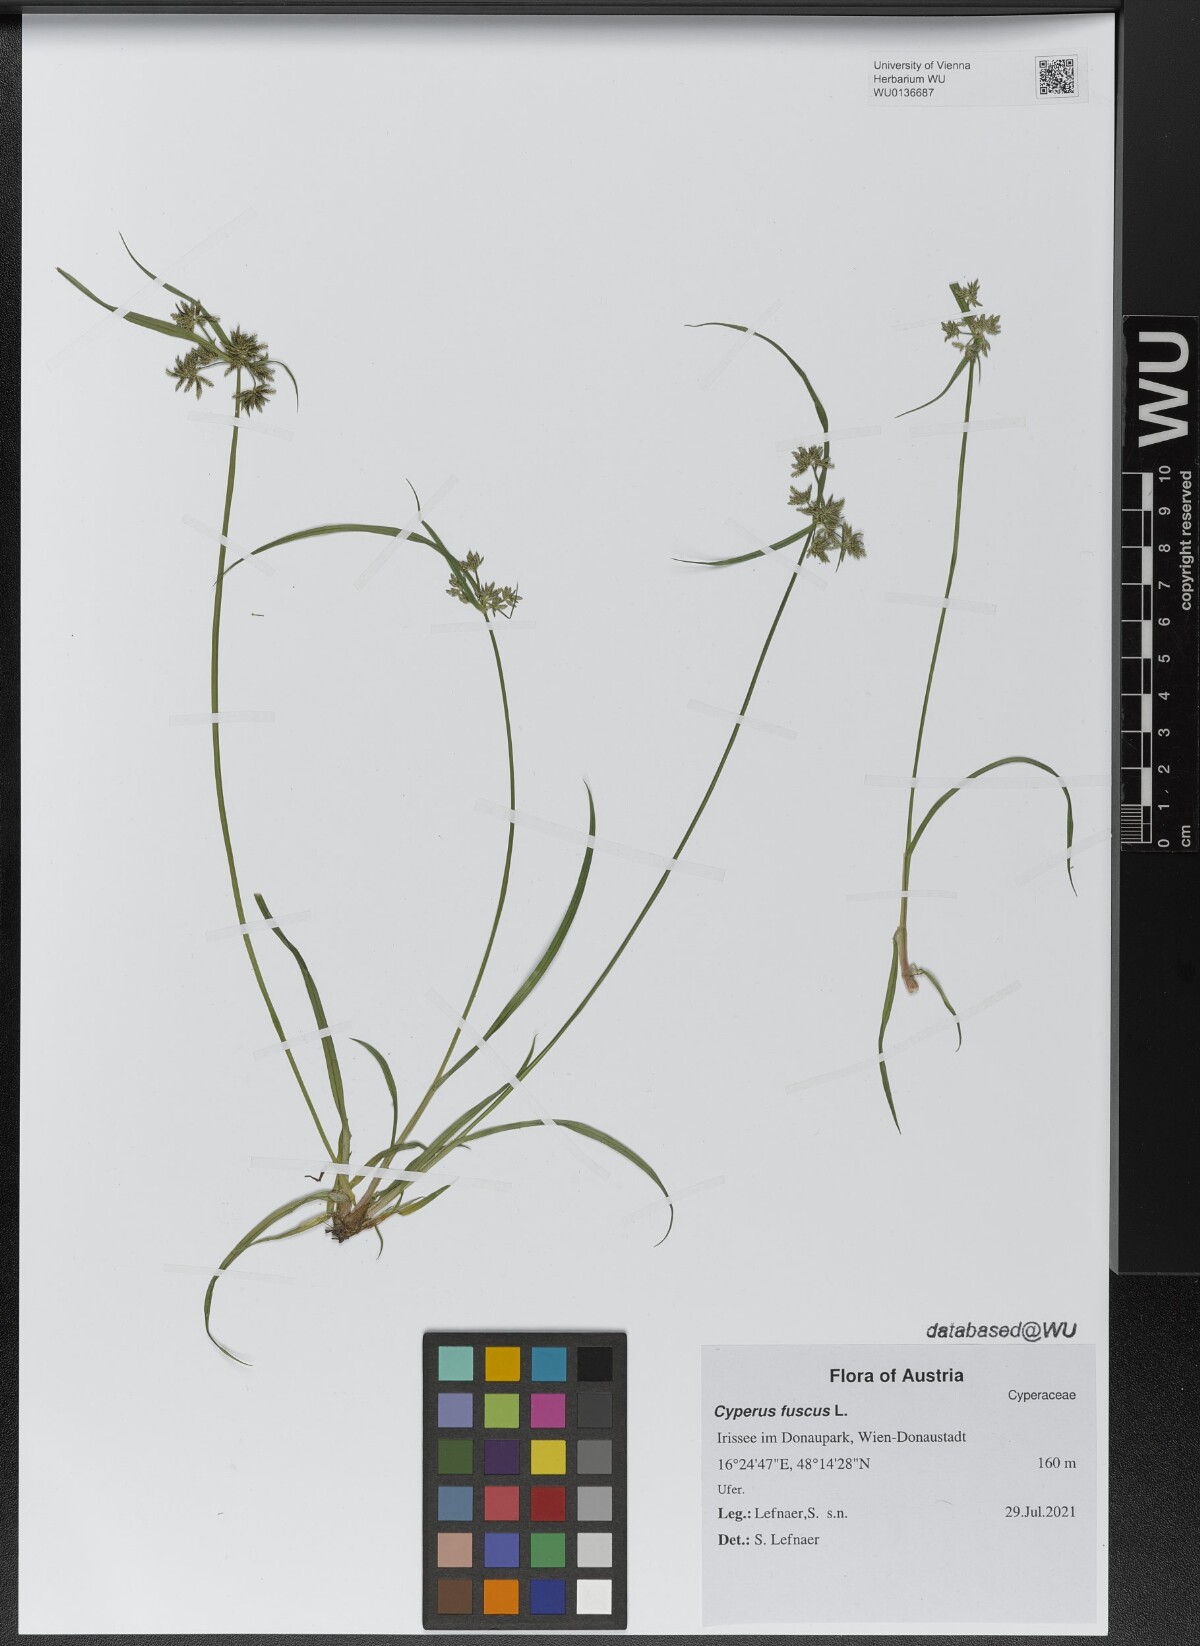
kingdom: Plantae
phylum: Tracheophyta
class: Liliopsida
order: Poales
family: Cyperaceae
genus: Cyperus
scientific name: Cyperus fuscus
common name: Brown galingale
